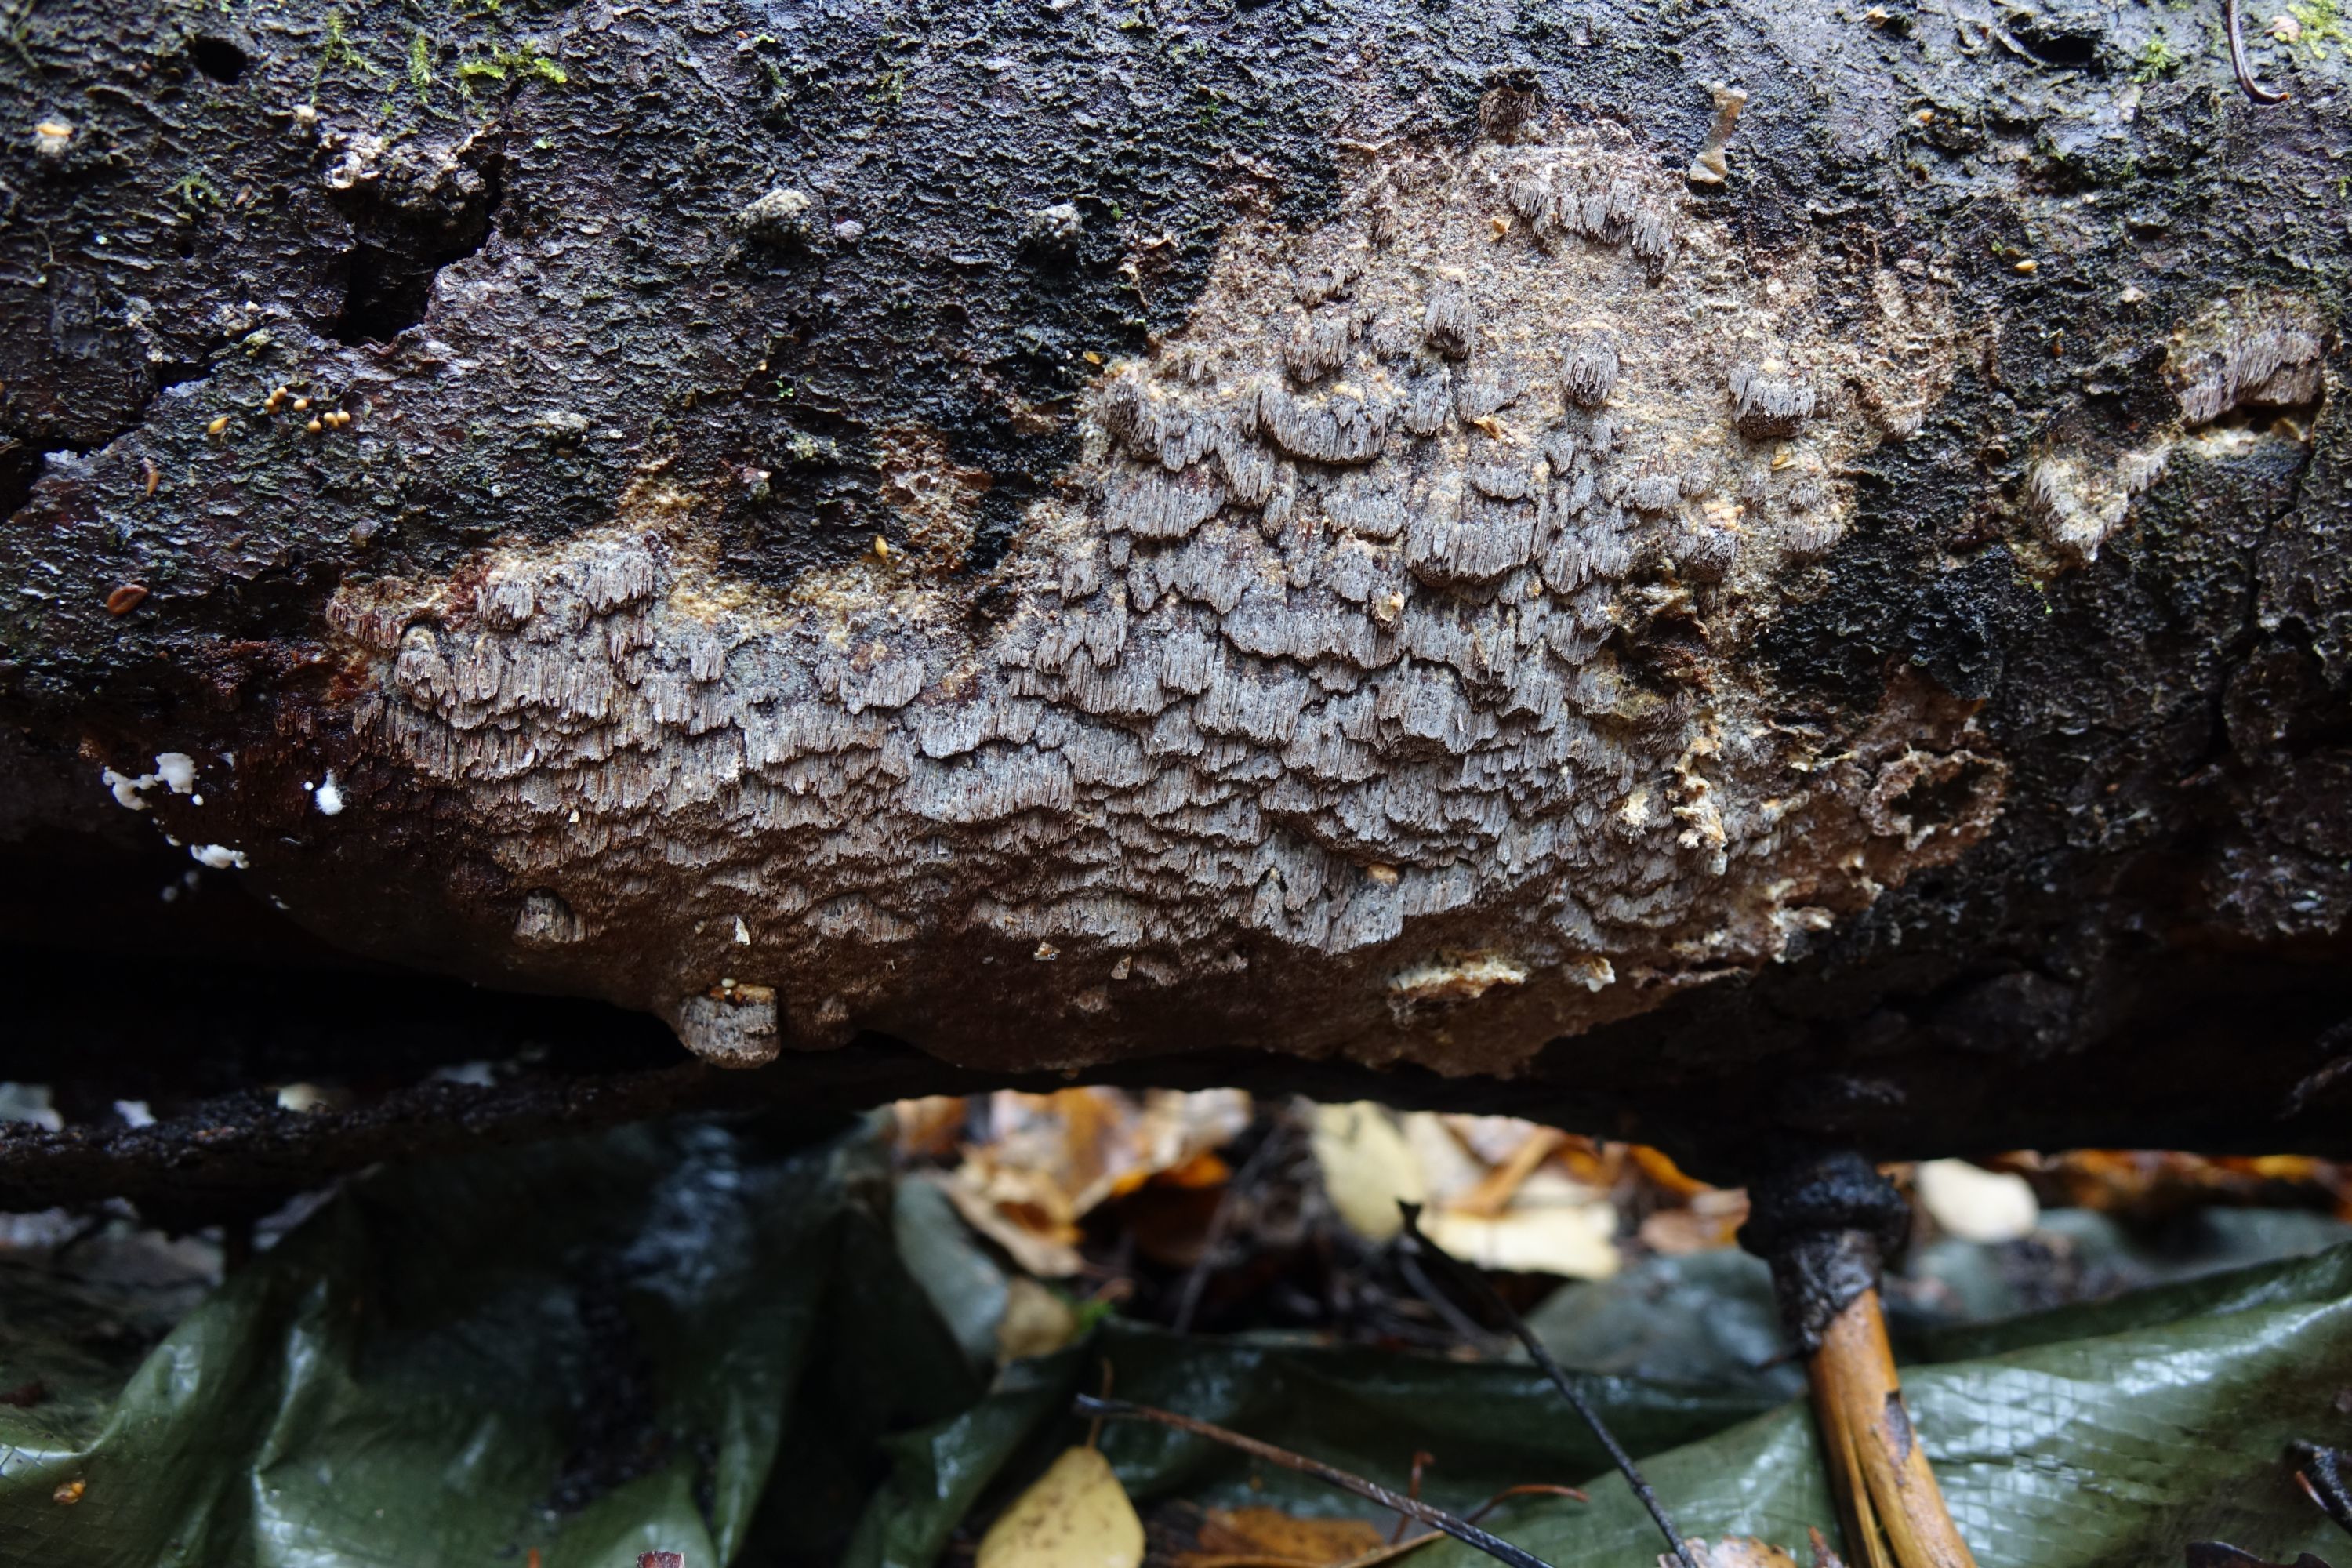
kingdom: Fungi
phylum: Basidiomycota
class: Agaricomycetes
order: Hymenochaetales
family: Hymenochaetaceae
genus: Phellinidium
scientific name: Phellinidium ferrugineofuscum
